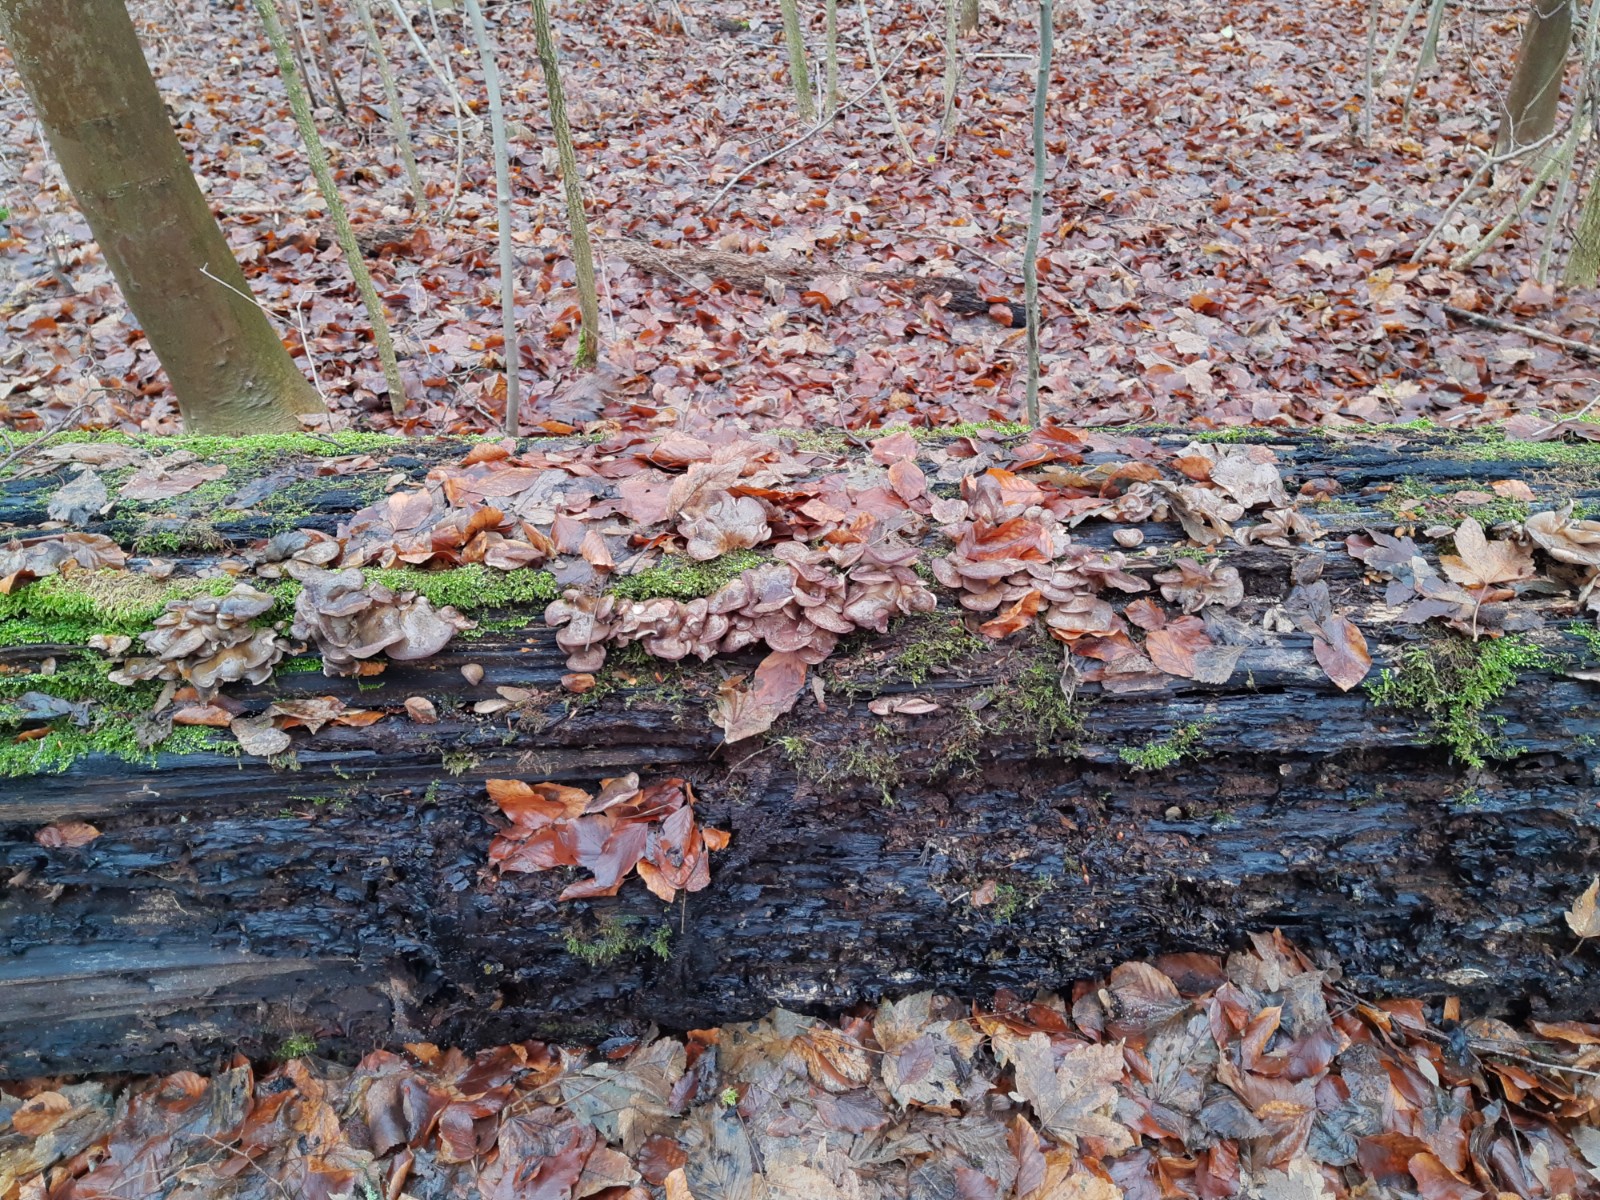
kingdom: Fungi
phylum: Basidiomycota
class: Agaricomycetes
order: Agaricales
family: Sarcomyxaceae
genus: Sarcomyxa
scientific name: Sarcomyxa serotina
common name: gummihat
